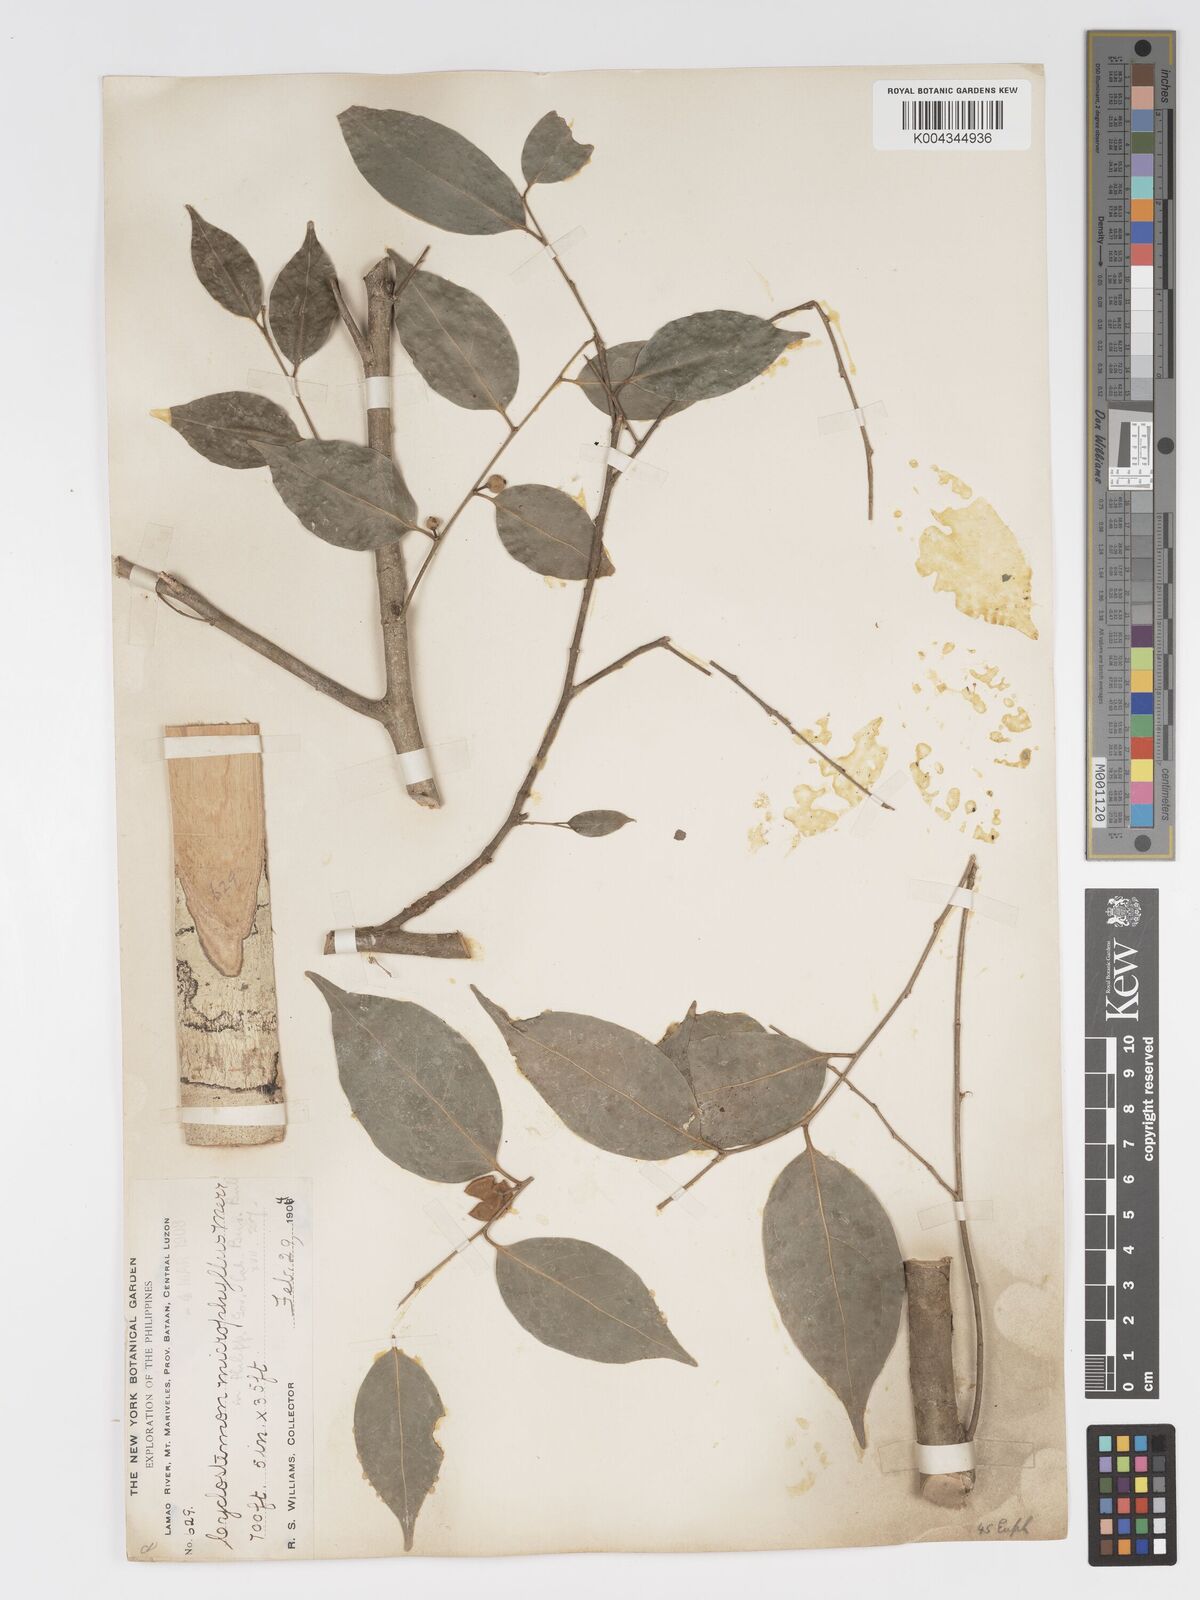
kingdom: Plantae
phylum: Tracheophyta
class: Magnoliopsida
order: Malpighiales
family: Putranjivaceae
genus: Drypetes
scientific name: Drypetes microphylla
